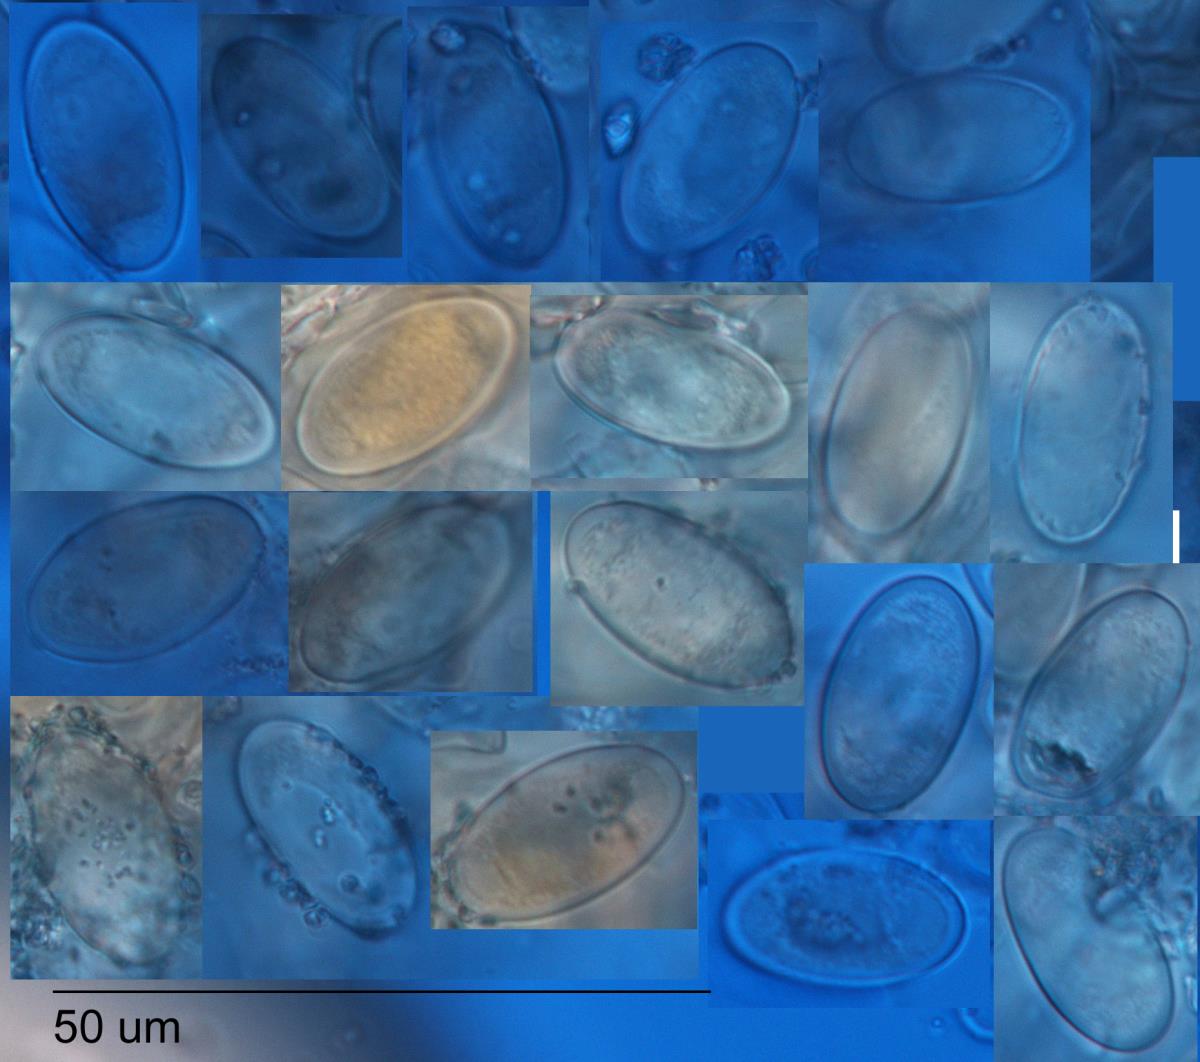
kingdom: Fungi
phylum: Ascomycota
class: Pezizomycetes
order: Pezizales
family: Pezizaceae
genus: Peziza
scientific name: Peziza austrogeaster
